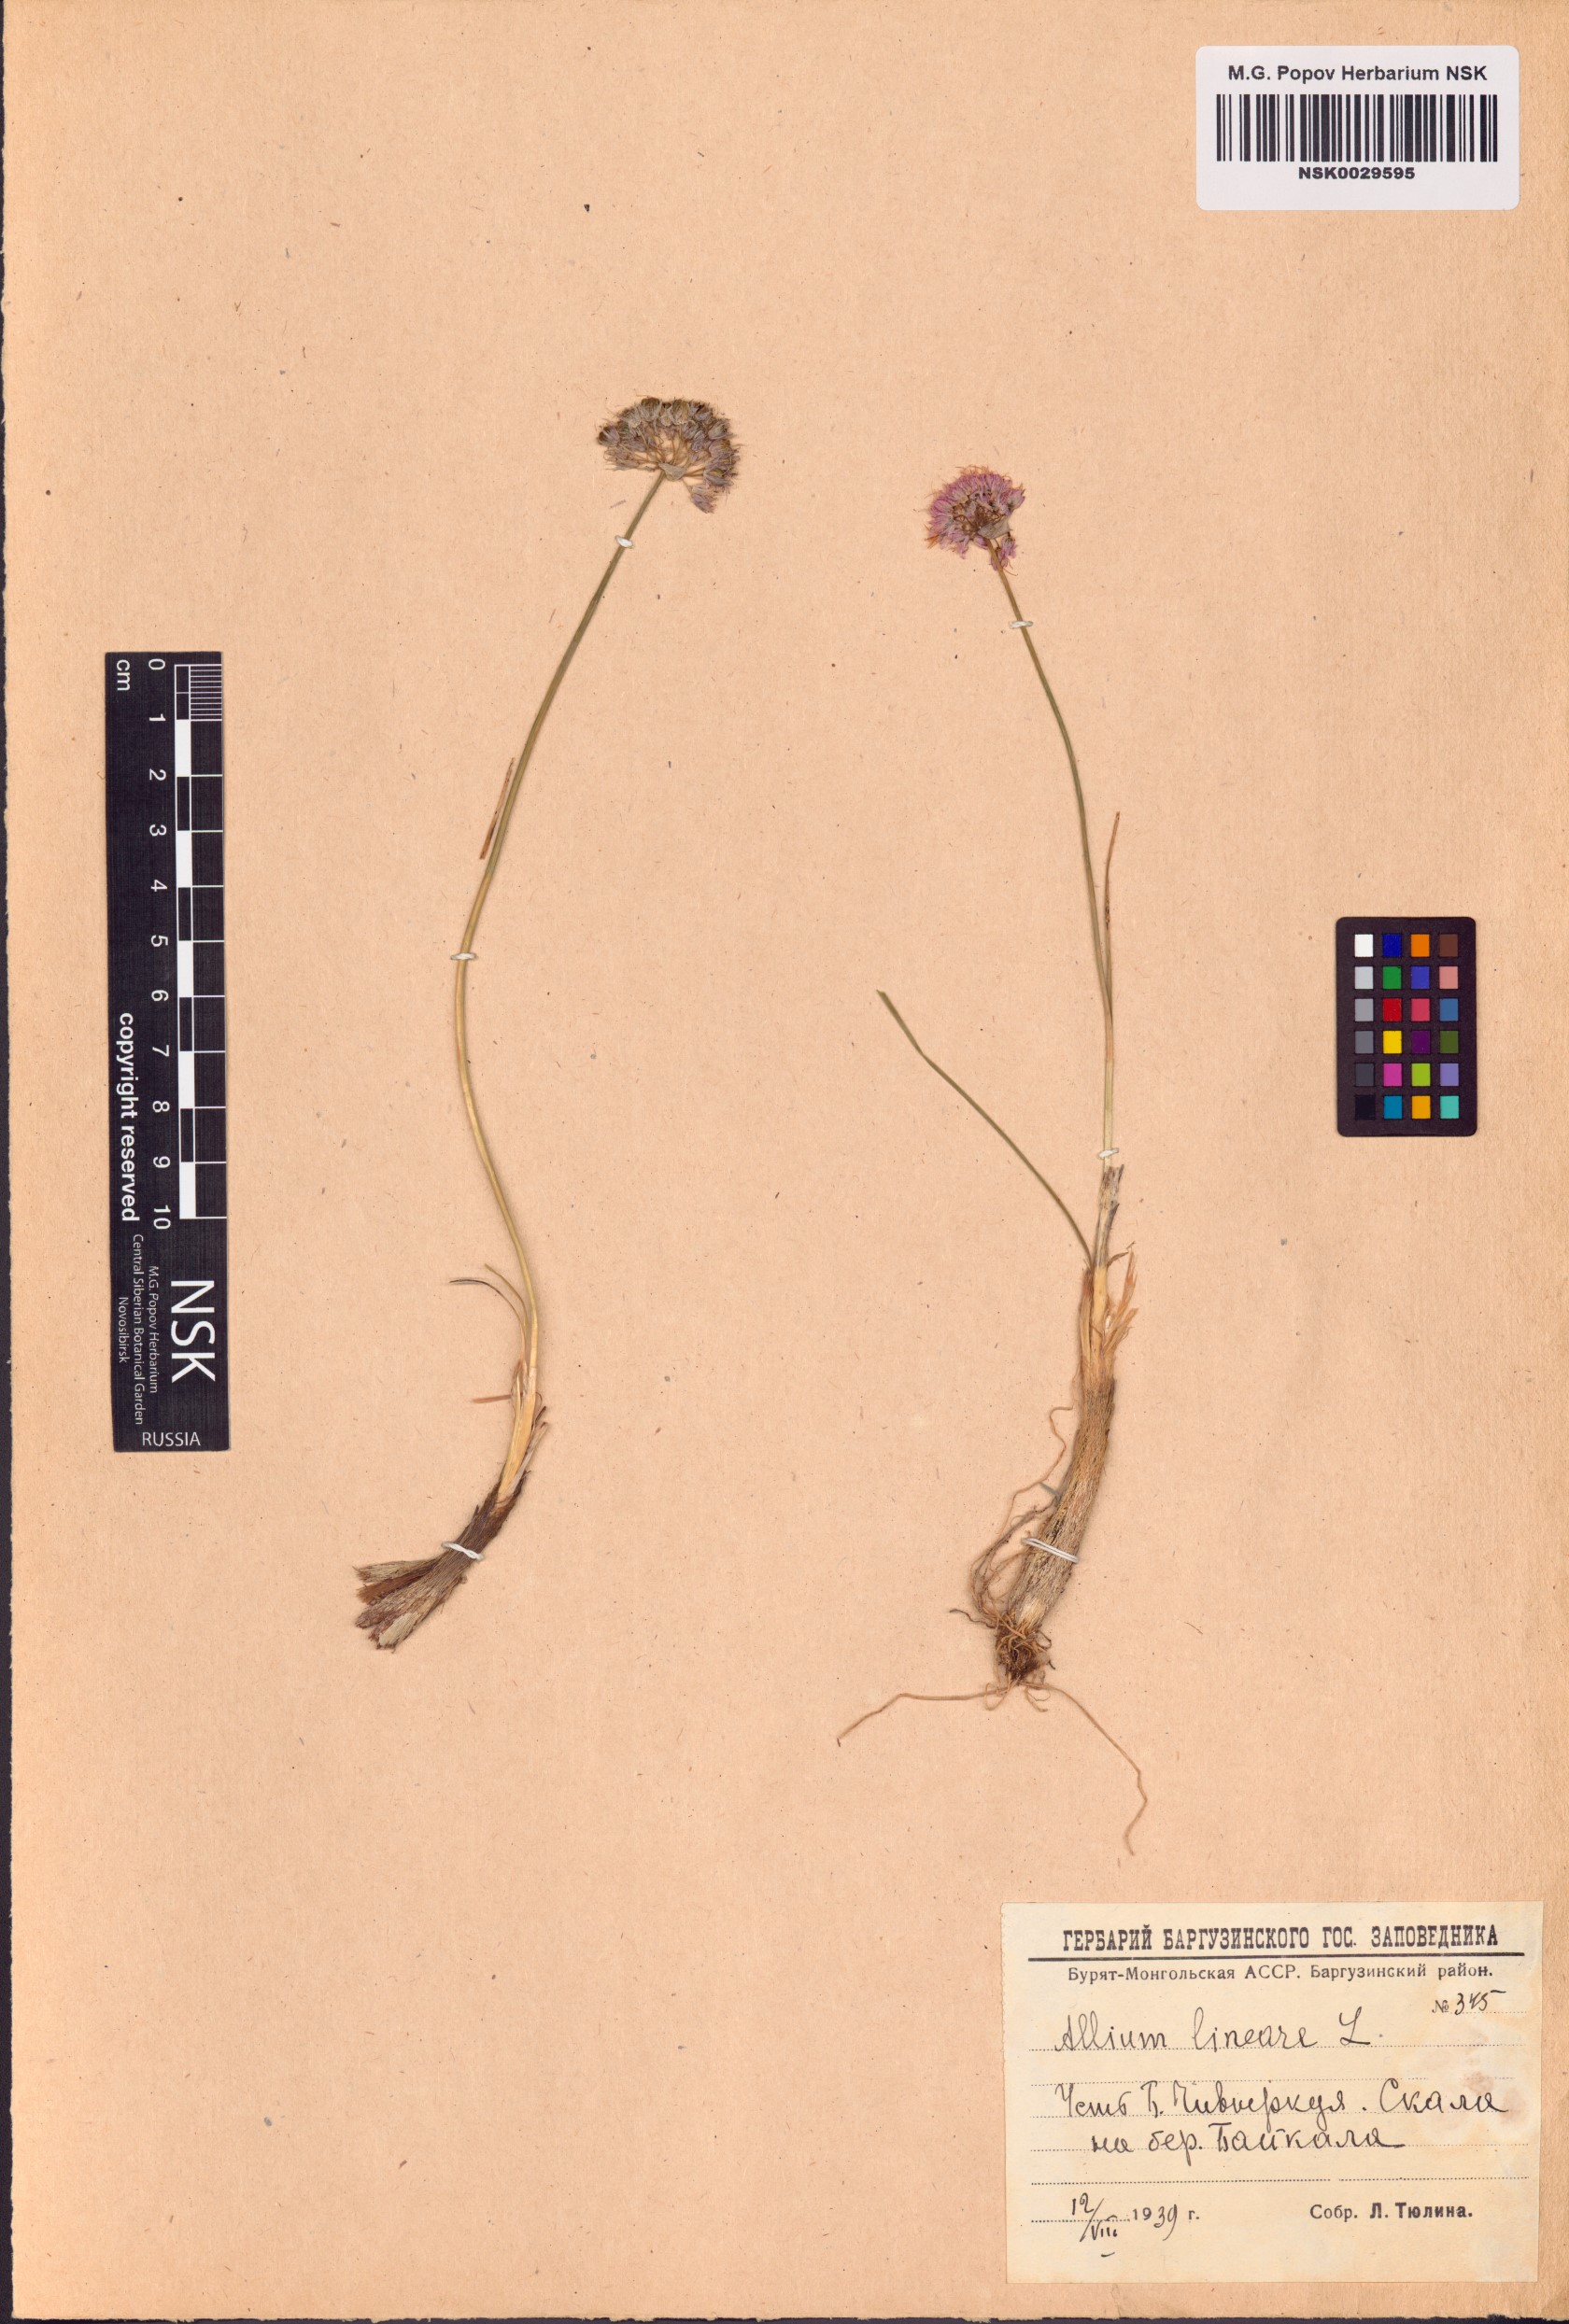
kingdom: Plantae
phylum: Tracheophyta
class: Liliopsida
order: Asparagales
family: Amaryllidaceae
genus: Allium
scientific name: Allium lineare
